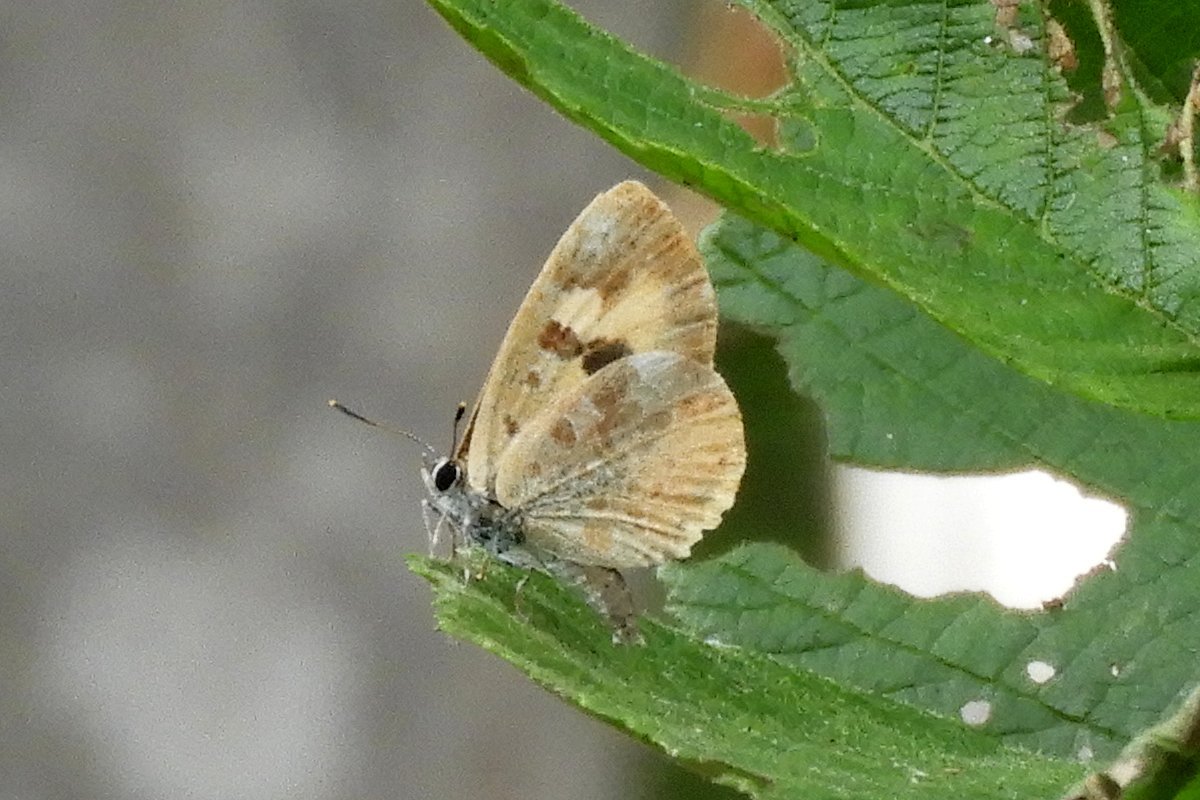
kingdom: Animalia
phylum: Arthropoda
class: Insecta
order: Lepidoptera
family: Lycaenidae
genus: Feniseca
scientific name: Feniseca tarquinius
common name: Harvester
